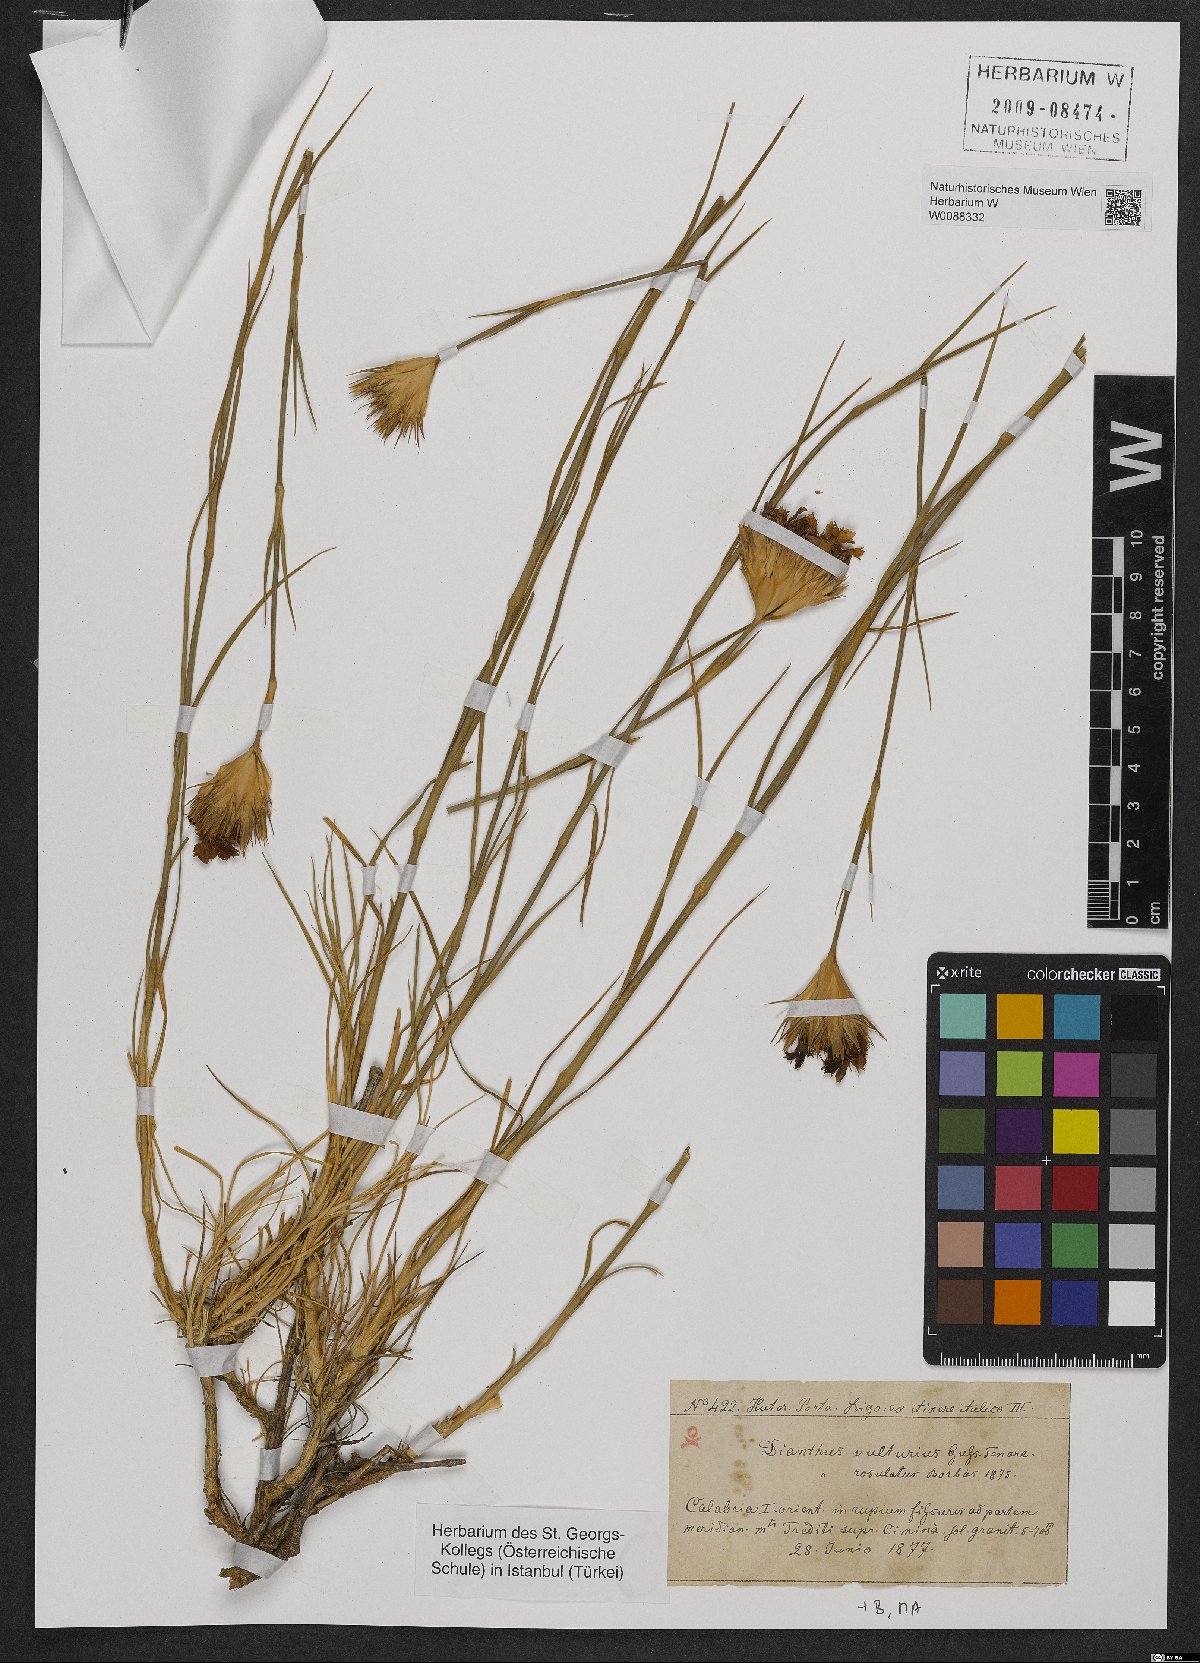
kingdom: Plantae
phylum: Tracheophyta
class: Magnoliopsida
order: Caryophyllales
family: Caryophyllaceae
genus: Dianthus
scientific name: Dianthus vulturius
